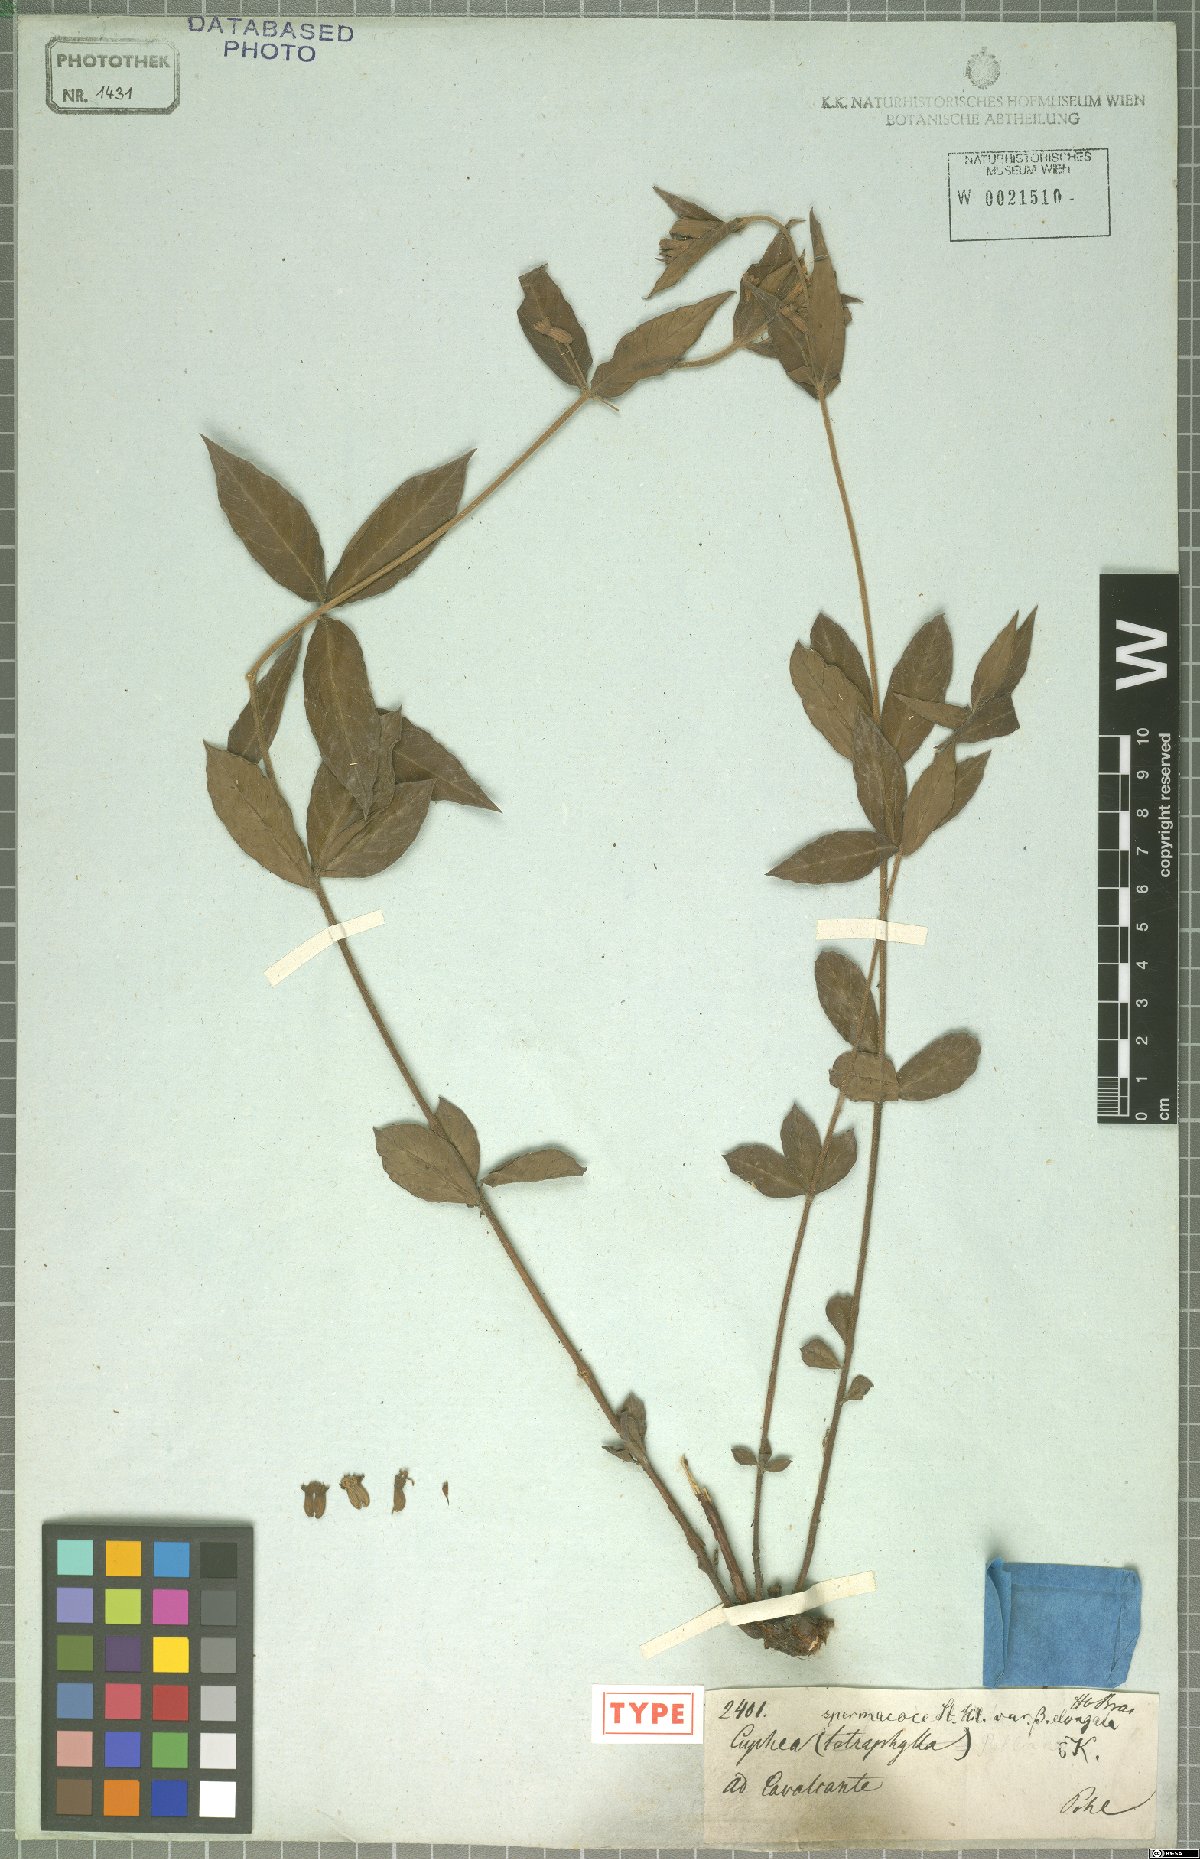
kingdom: Plantae
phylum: Tracheophyta
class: Magnoliopsida
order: Myrtales
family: Lythraceae
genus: Cuphea
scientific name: Cuphea spermacoce
